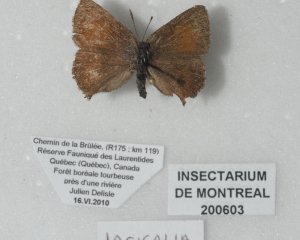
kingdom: Animalia
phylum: Arthropoda
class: Insecta
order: Lepidoptera
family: Lycaenidae
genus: Incisalia
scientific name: Incisalia irioides
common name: Brown Elfin
